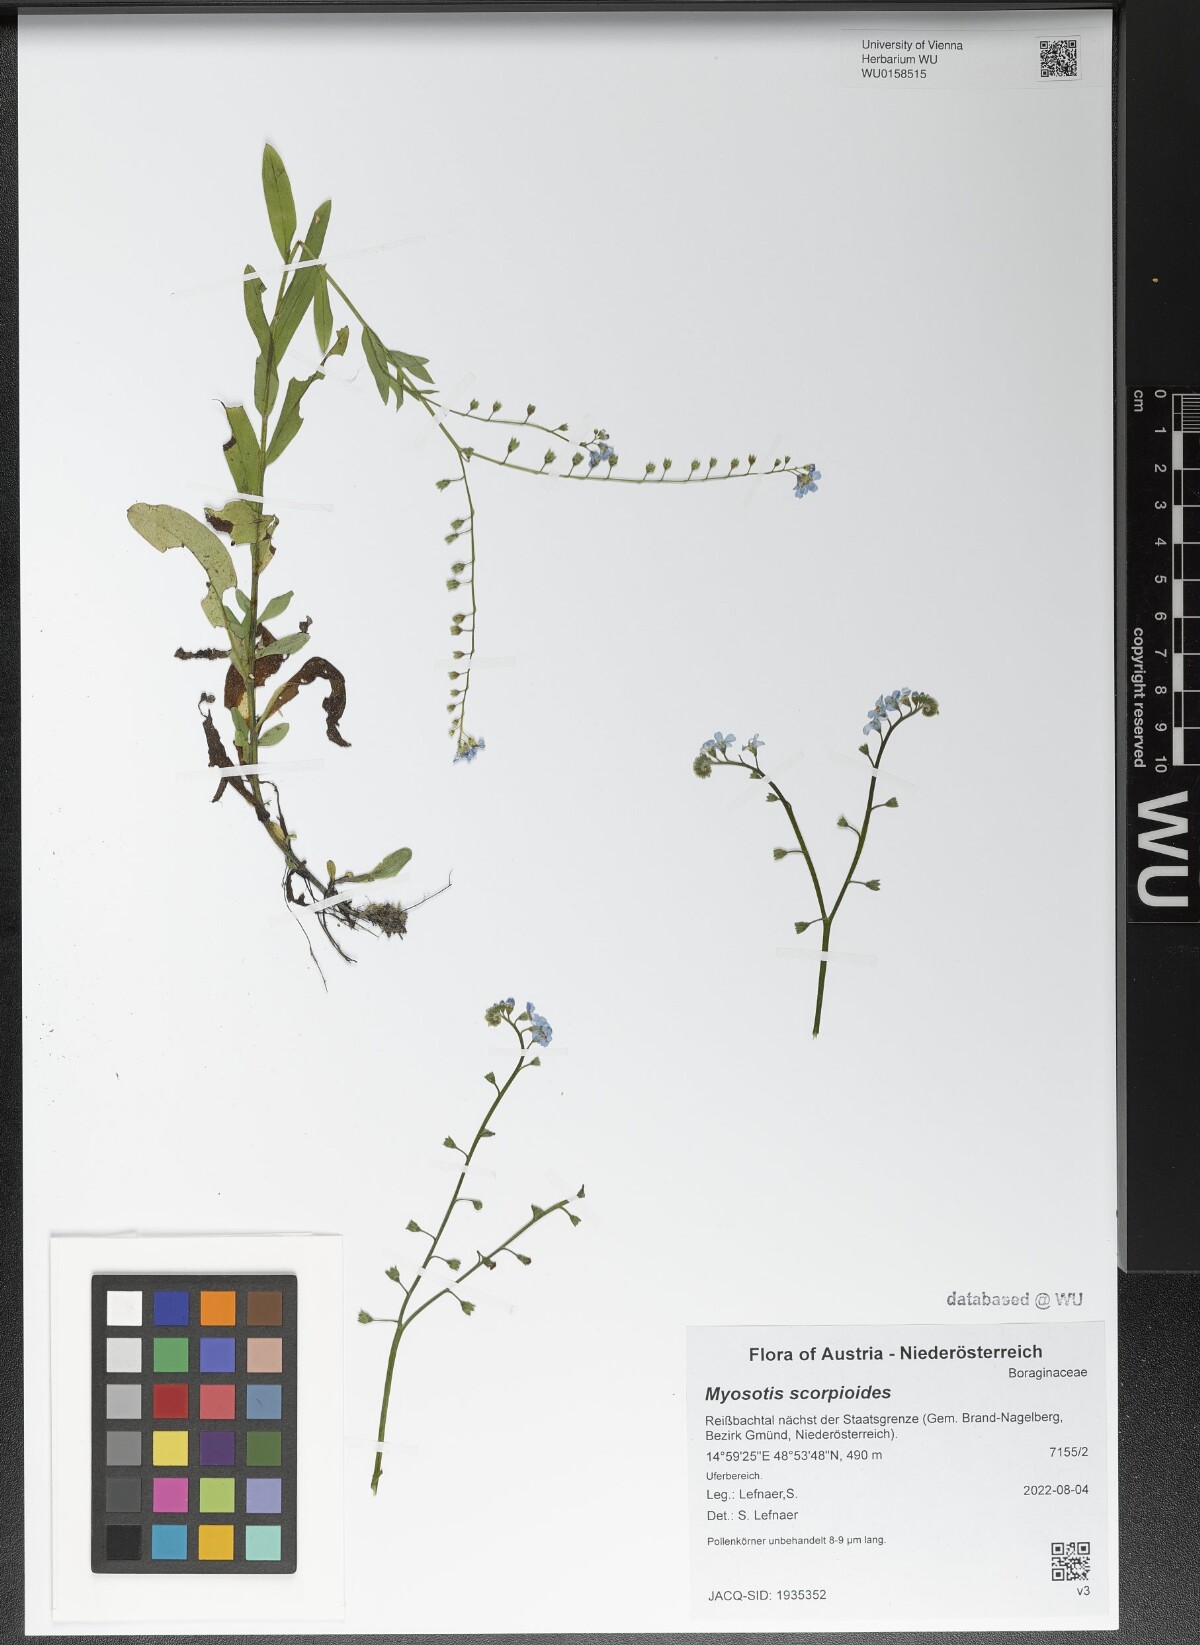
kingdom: Plantae
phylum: Tracheophyta
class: Magnoliopsida
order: Boraginales
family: Boraginaceae
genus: Myosotis
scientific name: Myosotis scorpioides
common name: Water forget-me-not
